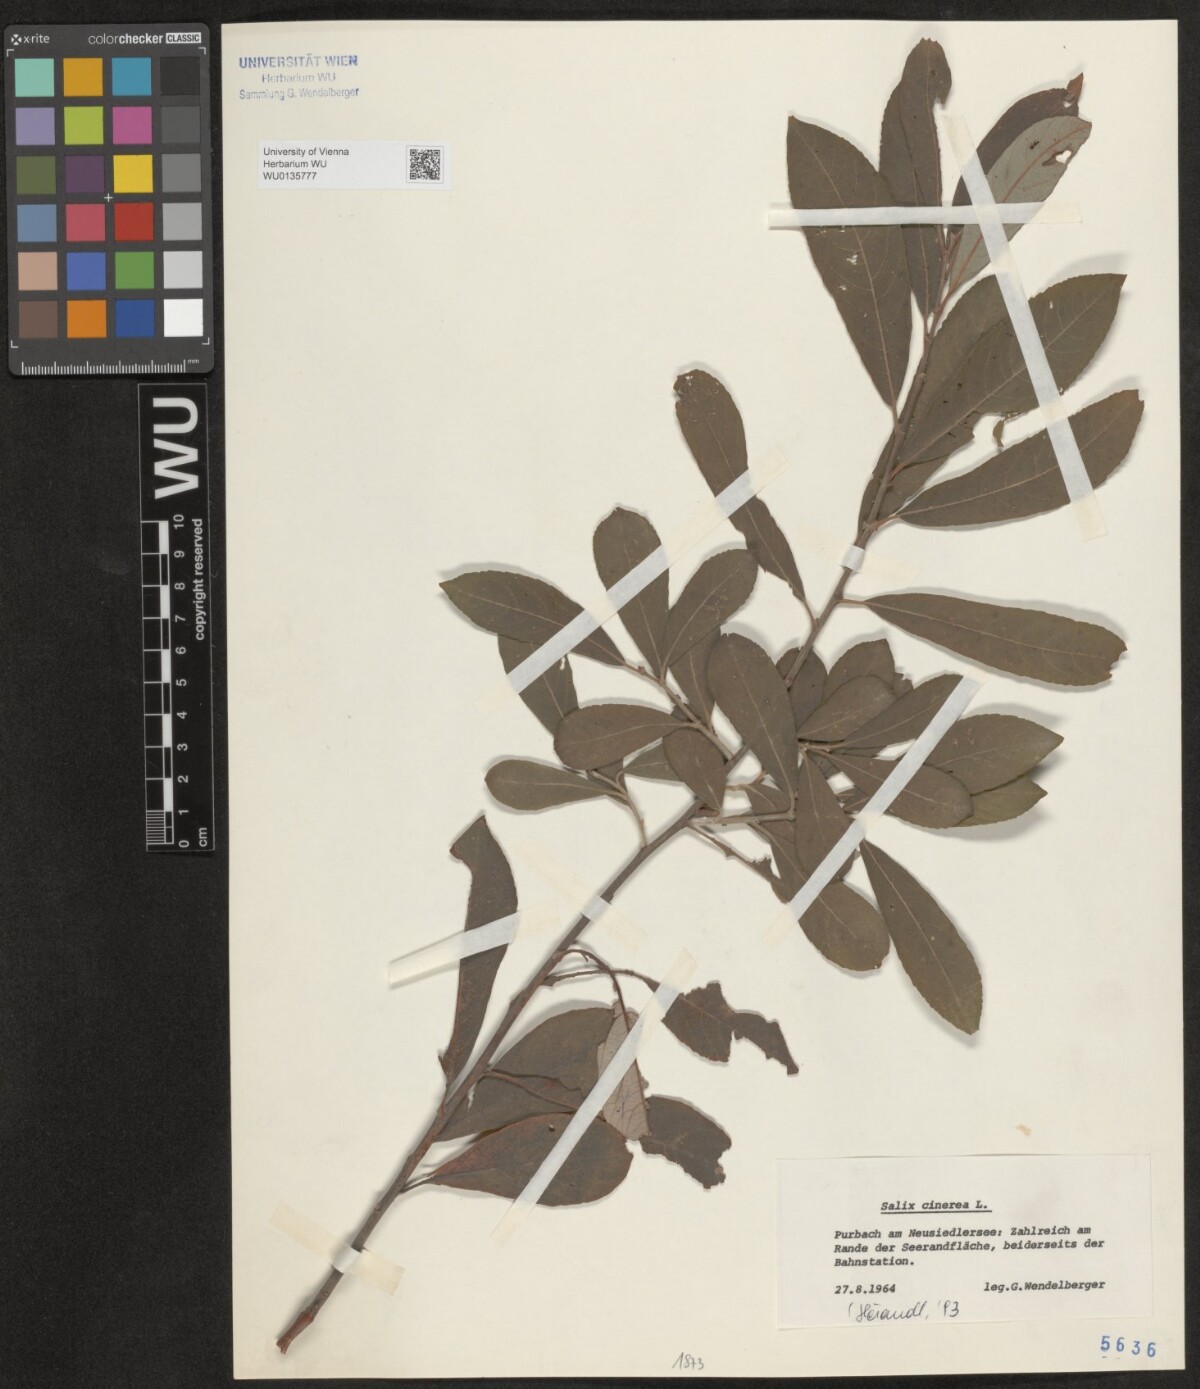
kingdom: Plantae
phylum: Tracheophyta
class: Magnoliopsida
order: Malpighiales
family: Salicaceae
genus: Salix
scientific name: Salix cinerea
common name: Common sallow
